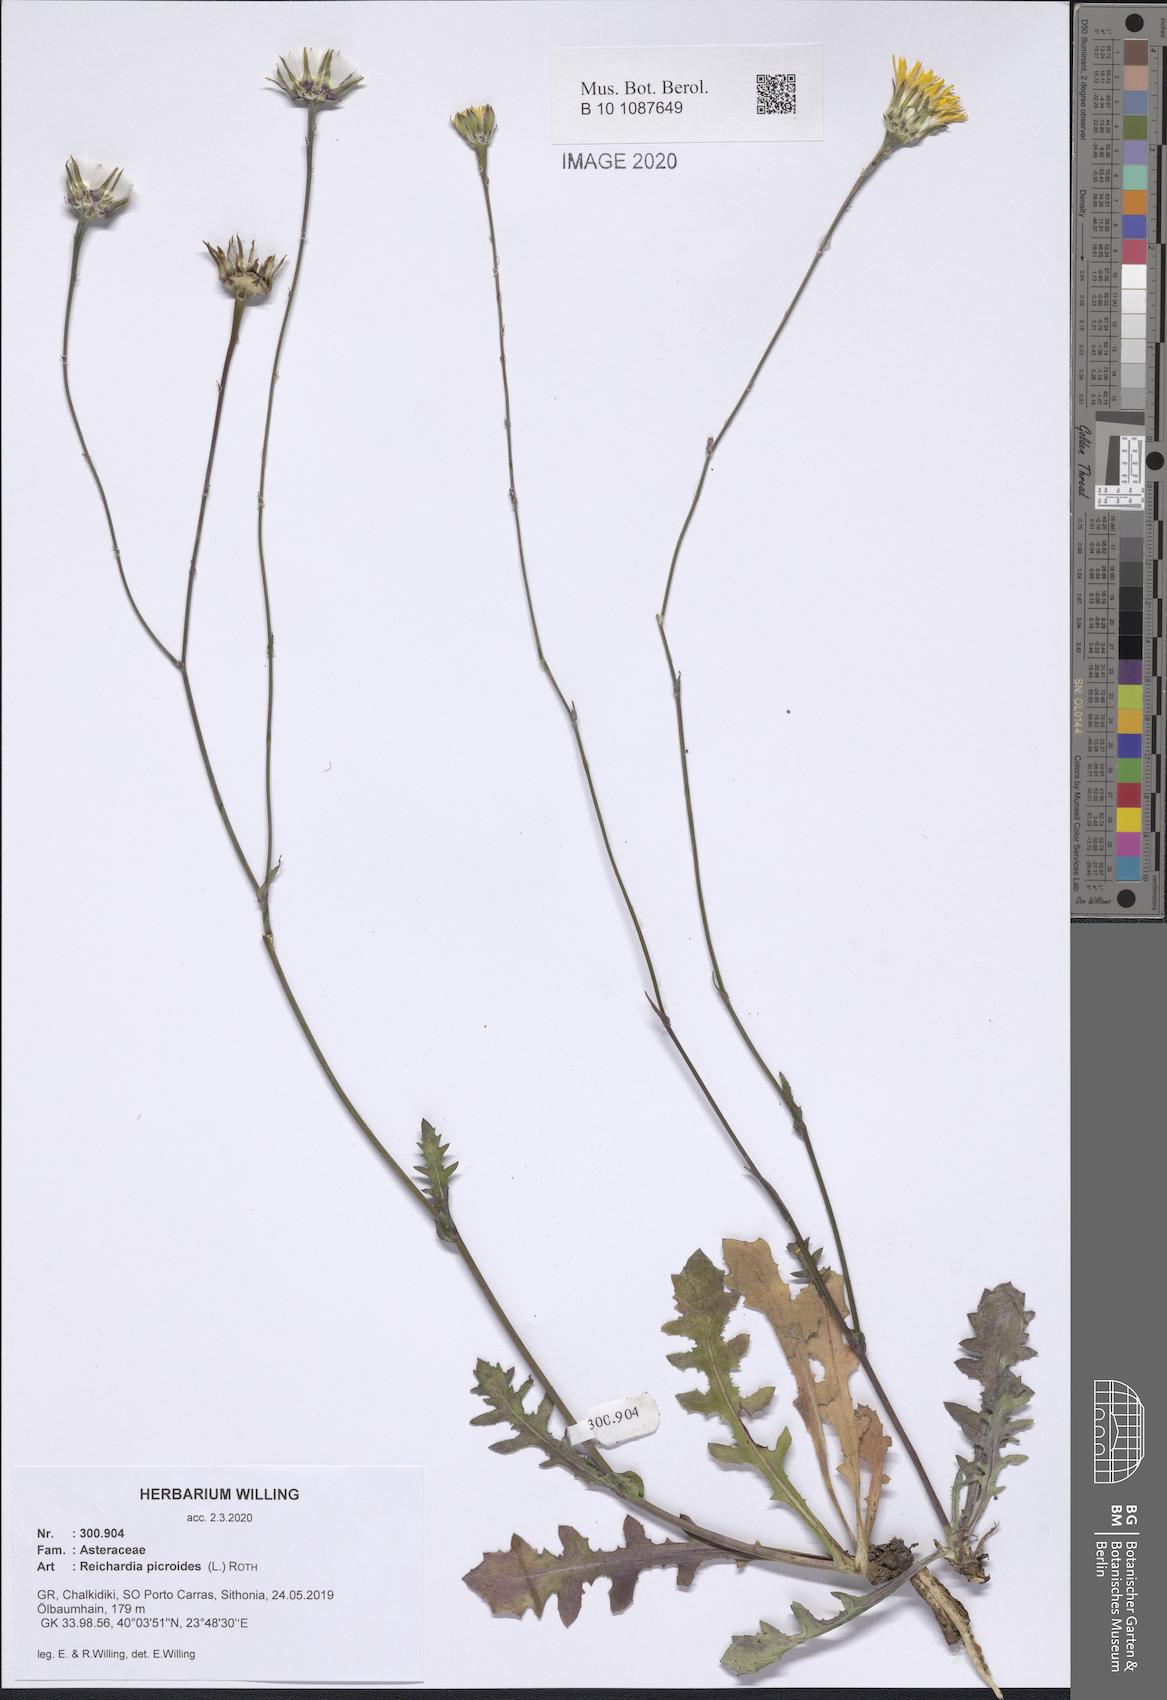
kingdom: Plantae
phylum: Tracheophyta
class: Magnoliopsida
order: Asterales
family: Asteraceae
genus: Reichardia
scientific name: Reichardia picroides
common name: Common brighteyes
